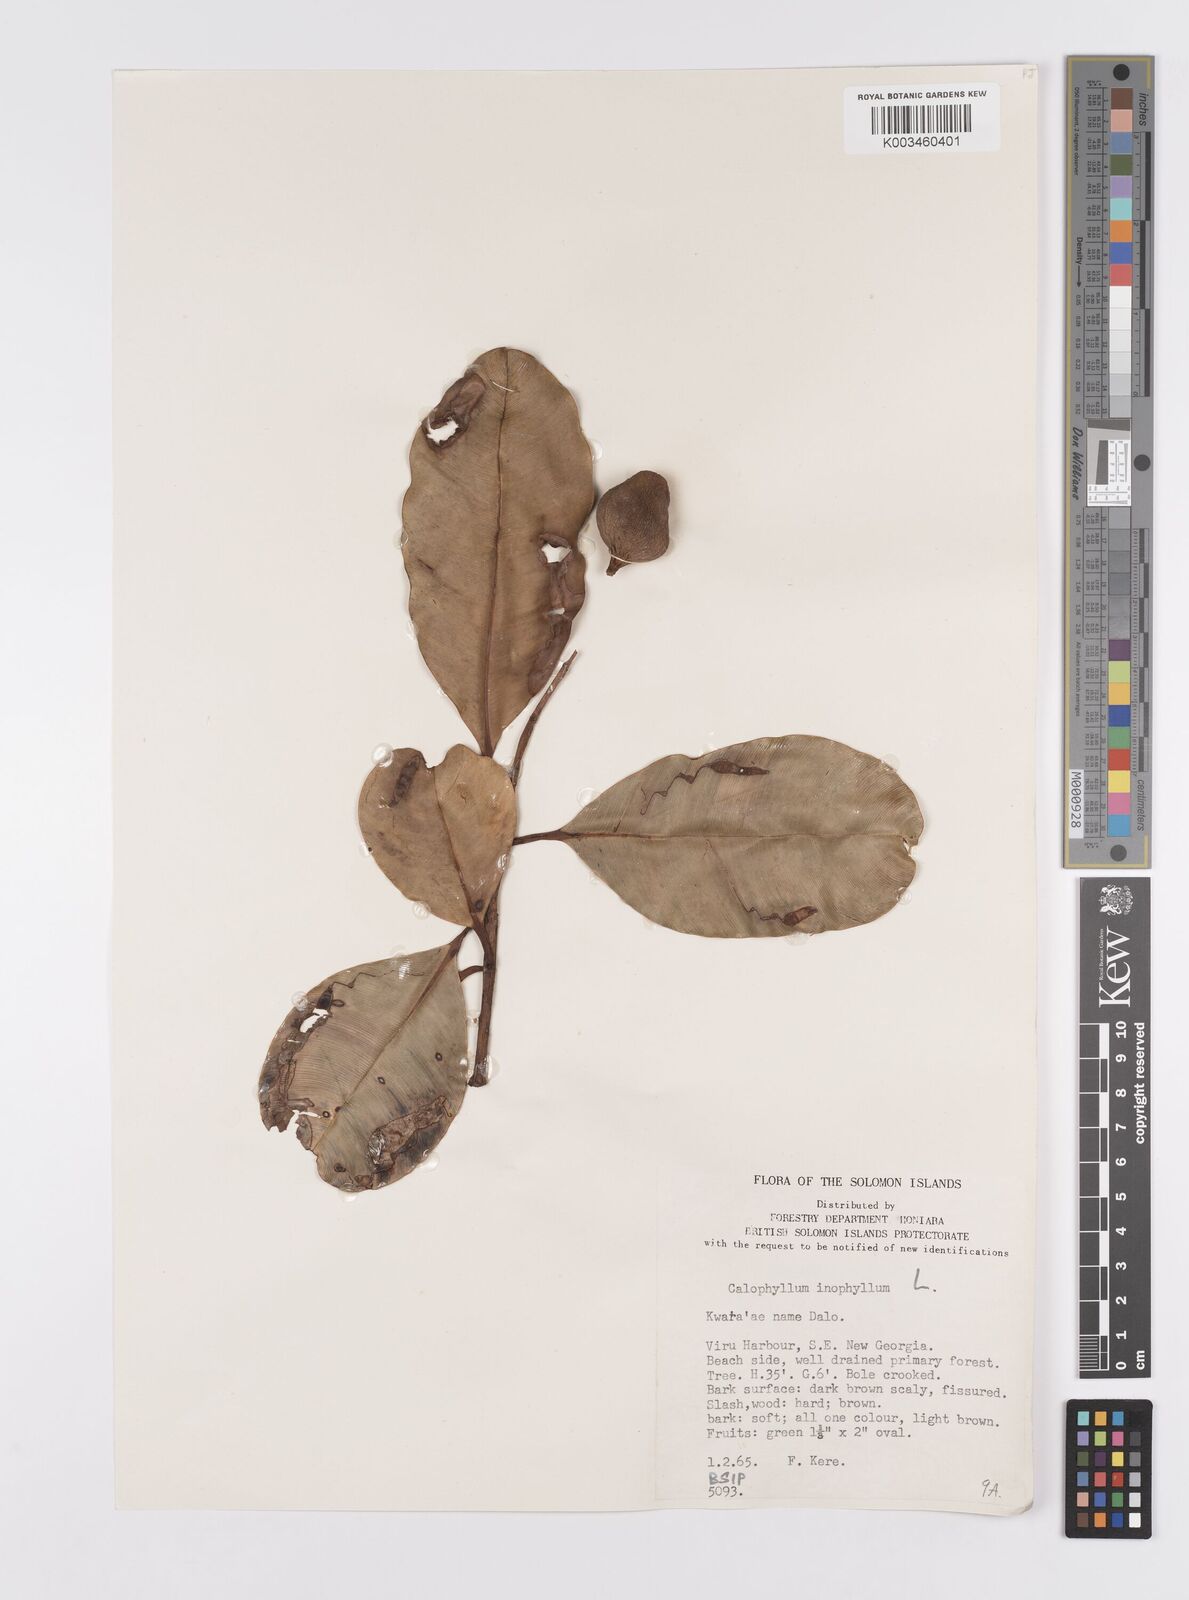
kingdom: Plantae
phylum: Tracheophyta
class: Magnoliopsida
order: Malpighiales
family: Calophyllaceae
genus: Calophyllum
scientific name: Calophyllum inophyllum
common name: Alexandrian laurel
